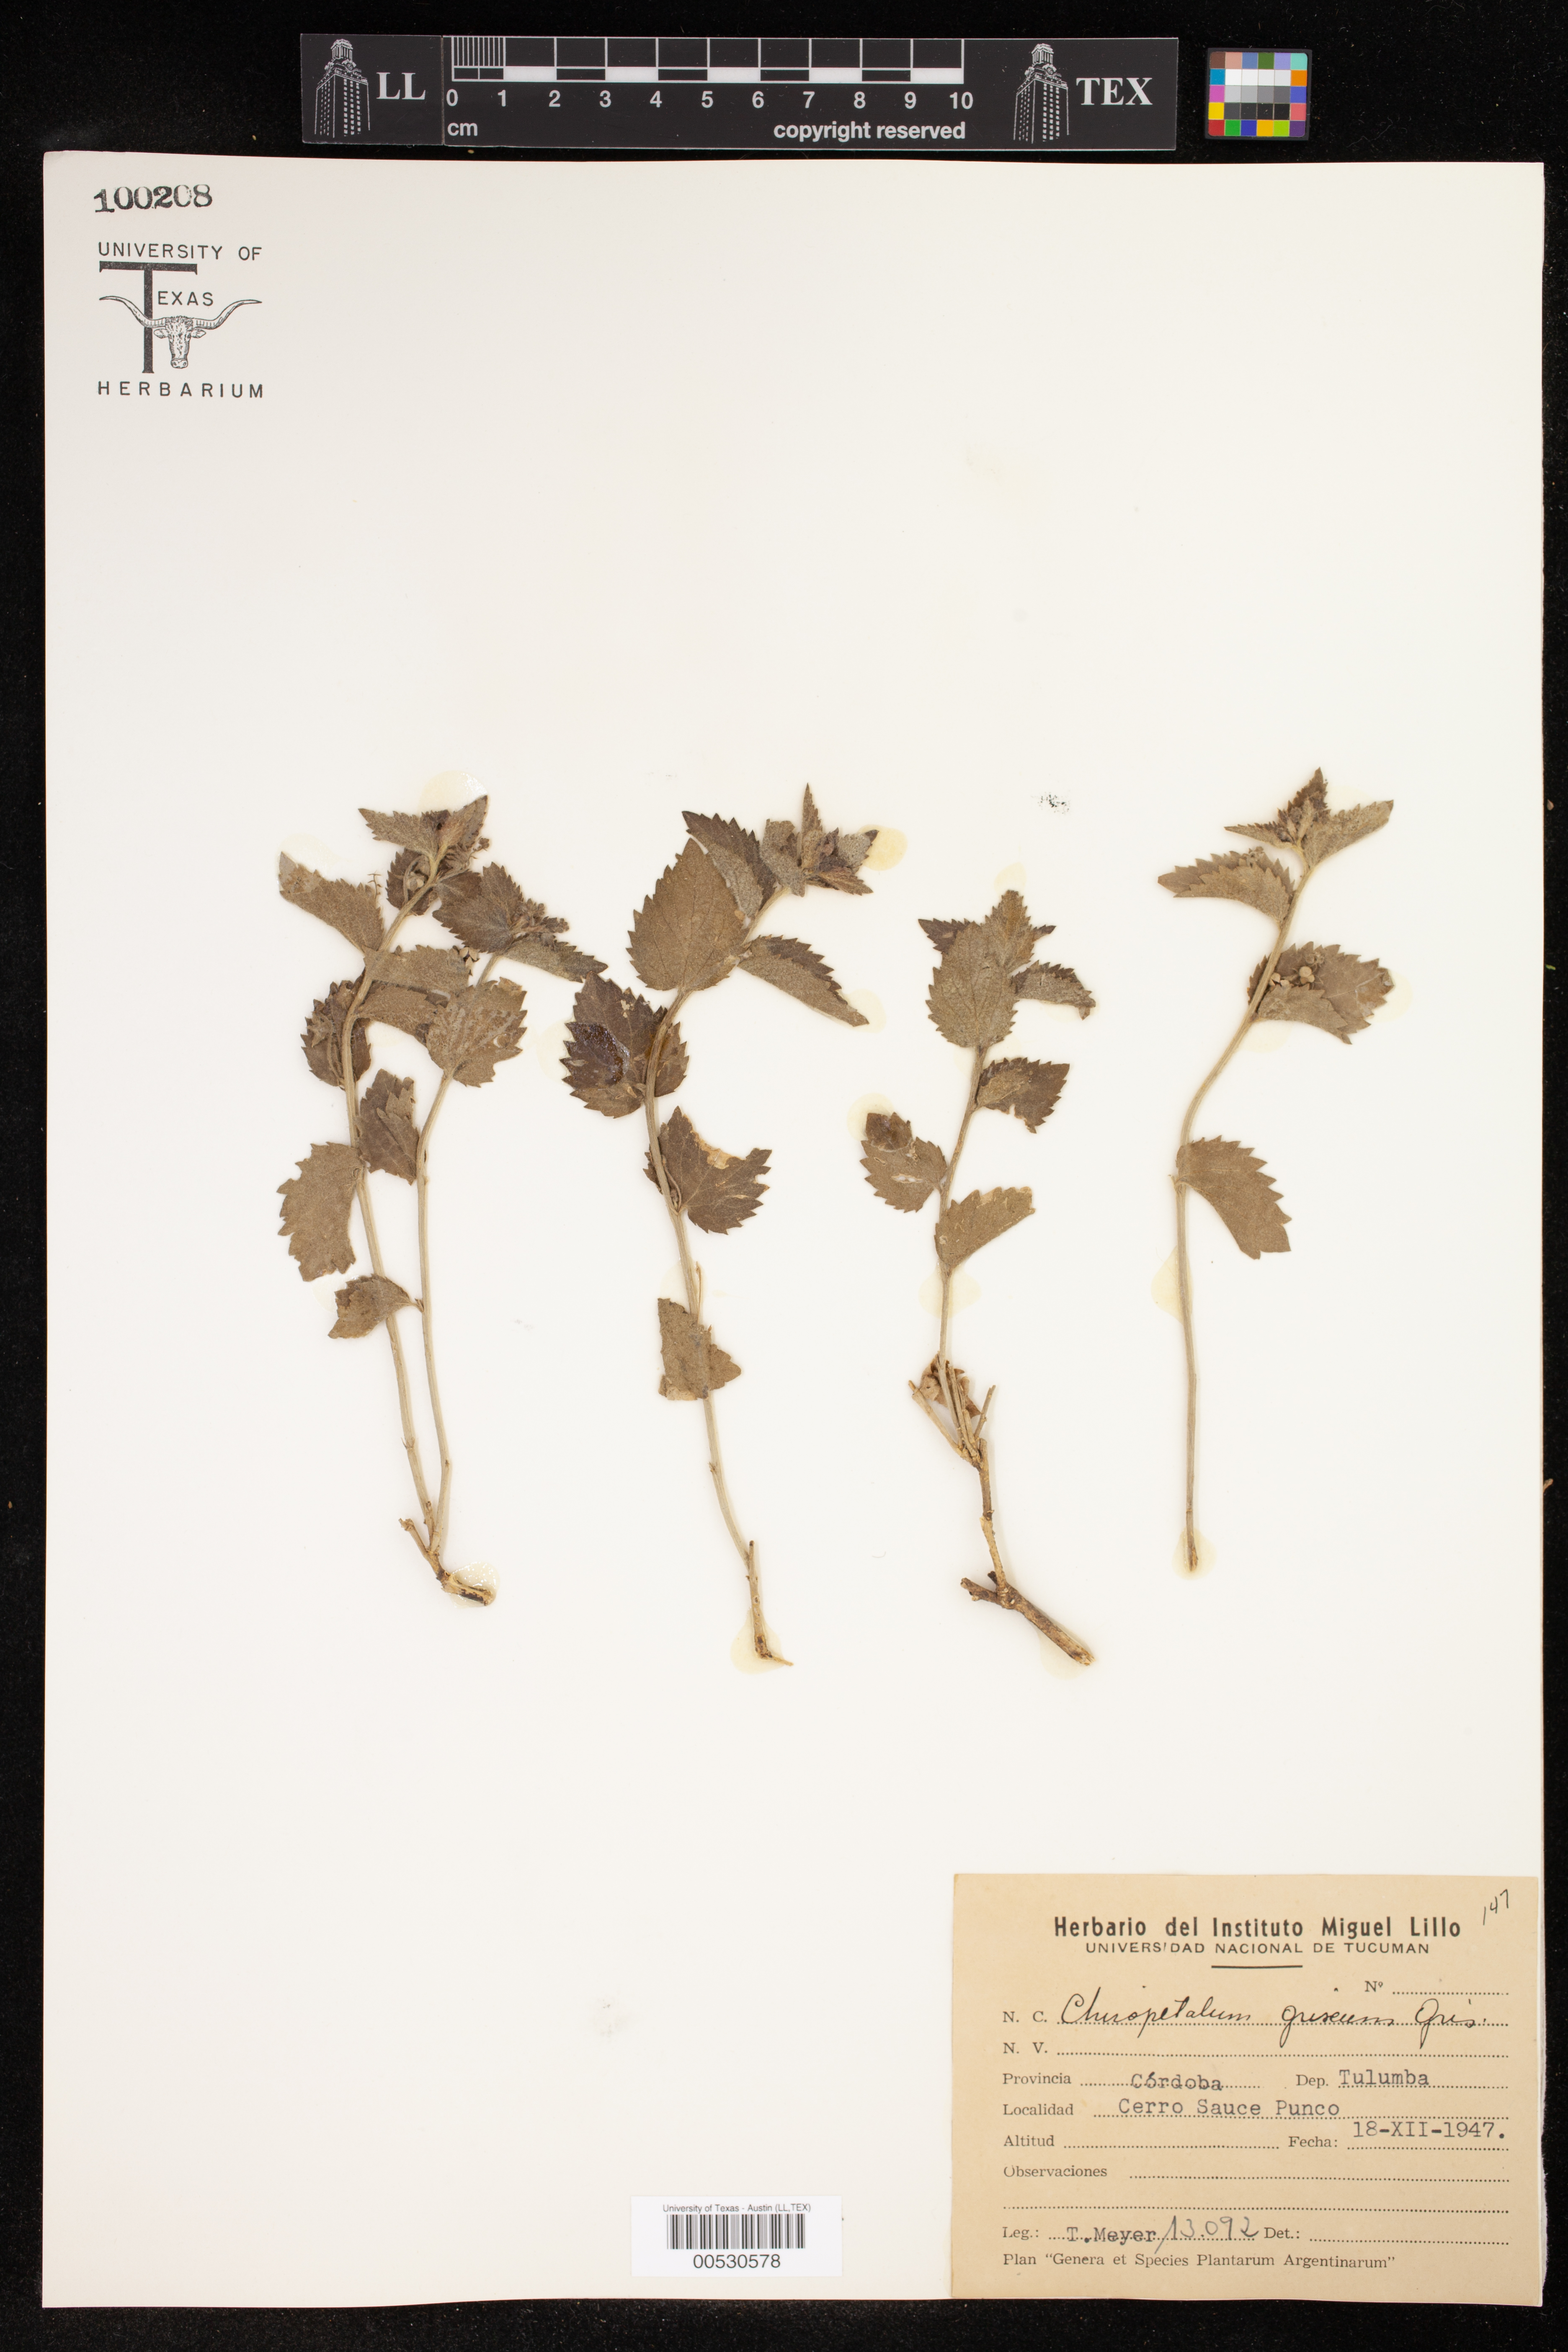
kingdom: Plantae
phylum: Tracheophyta
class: Magnoliopsida
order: Malpighiales
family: Euphorbiaceae
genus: Chiropetalum
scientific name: Chiropetalum griseum
